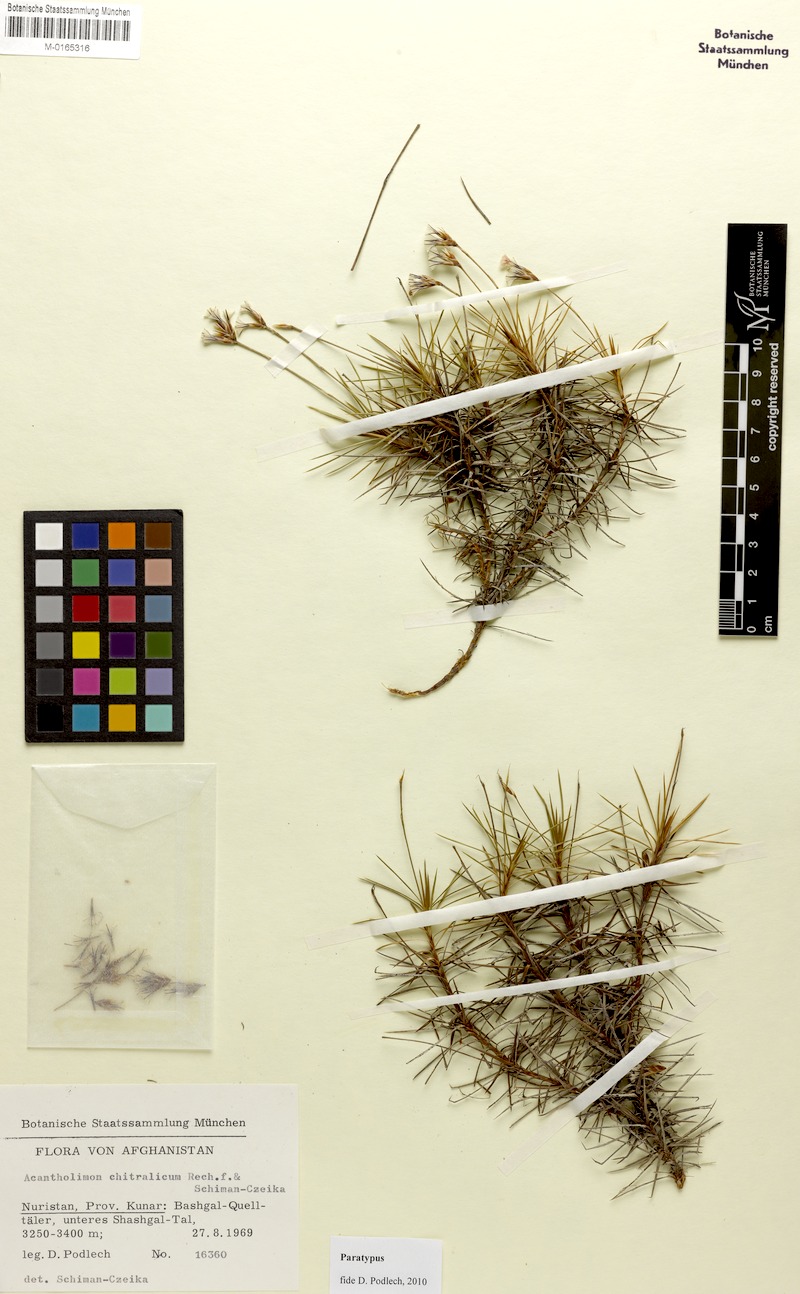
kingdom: Plantae
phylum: Tracheophyta
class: Magnoliopsida
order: Caryophyllales
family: Plumbaginaceae
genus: Acantholimon
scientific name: Acantholimon chitralicum
